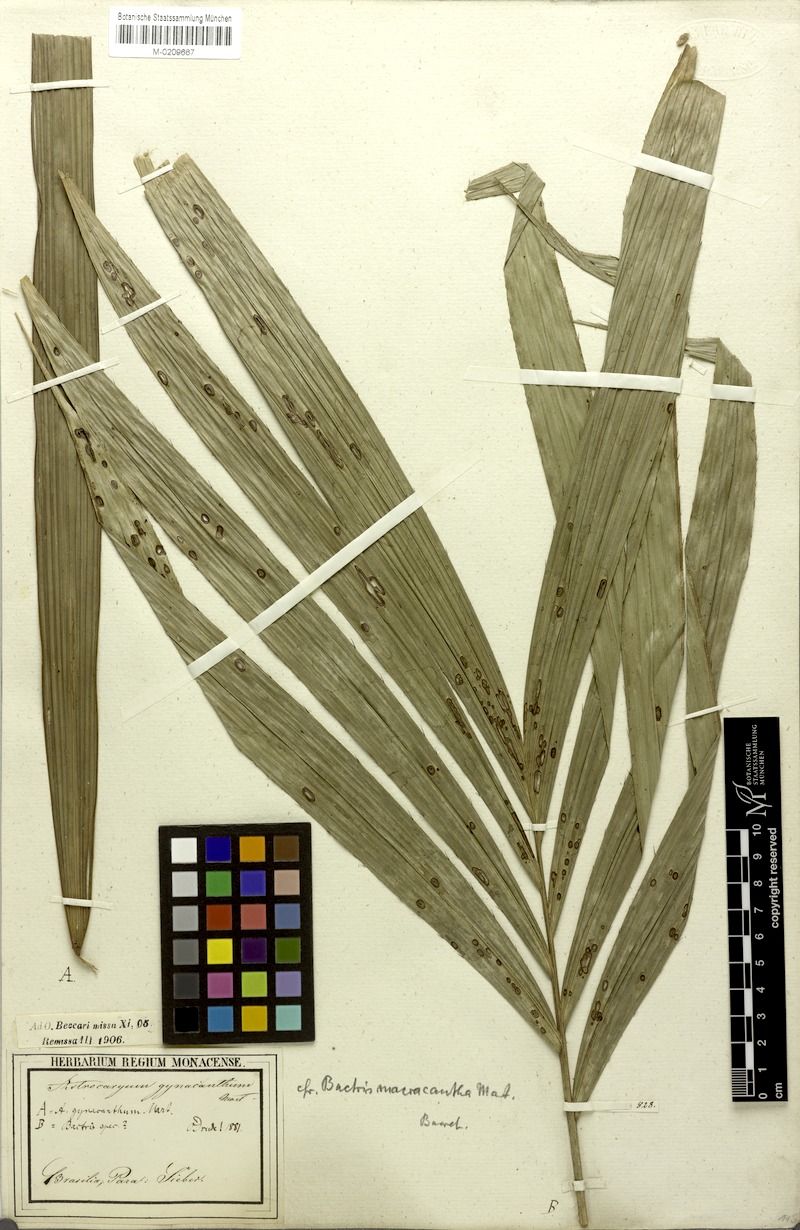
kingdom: Plantae
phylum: Tracheophyta
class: Liliopsida
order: Arecales
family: Arecaceae
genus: Bactris
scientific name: Bactris macroacantha
